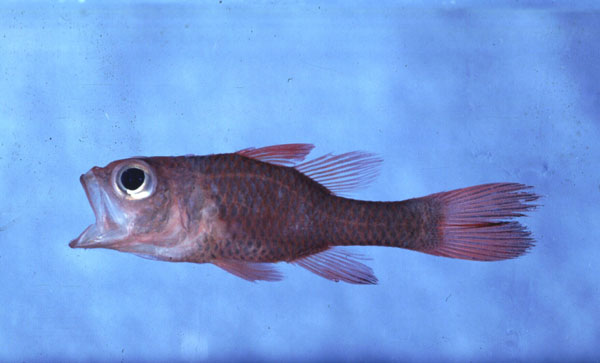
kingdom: Animalia
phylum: Chordata
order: Perciformes
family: Apogonidae
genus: Ostorhinchus
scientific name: Ostorhinchus cyanosoma
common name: Yellow-striped cardinalfish
